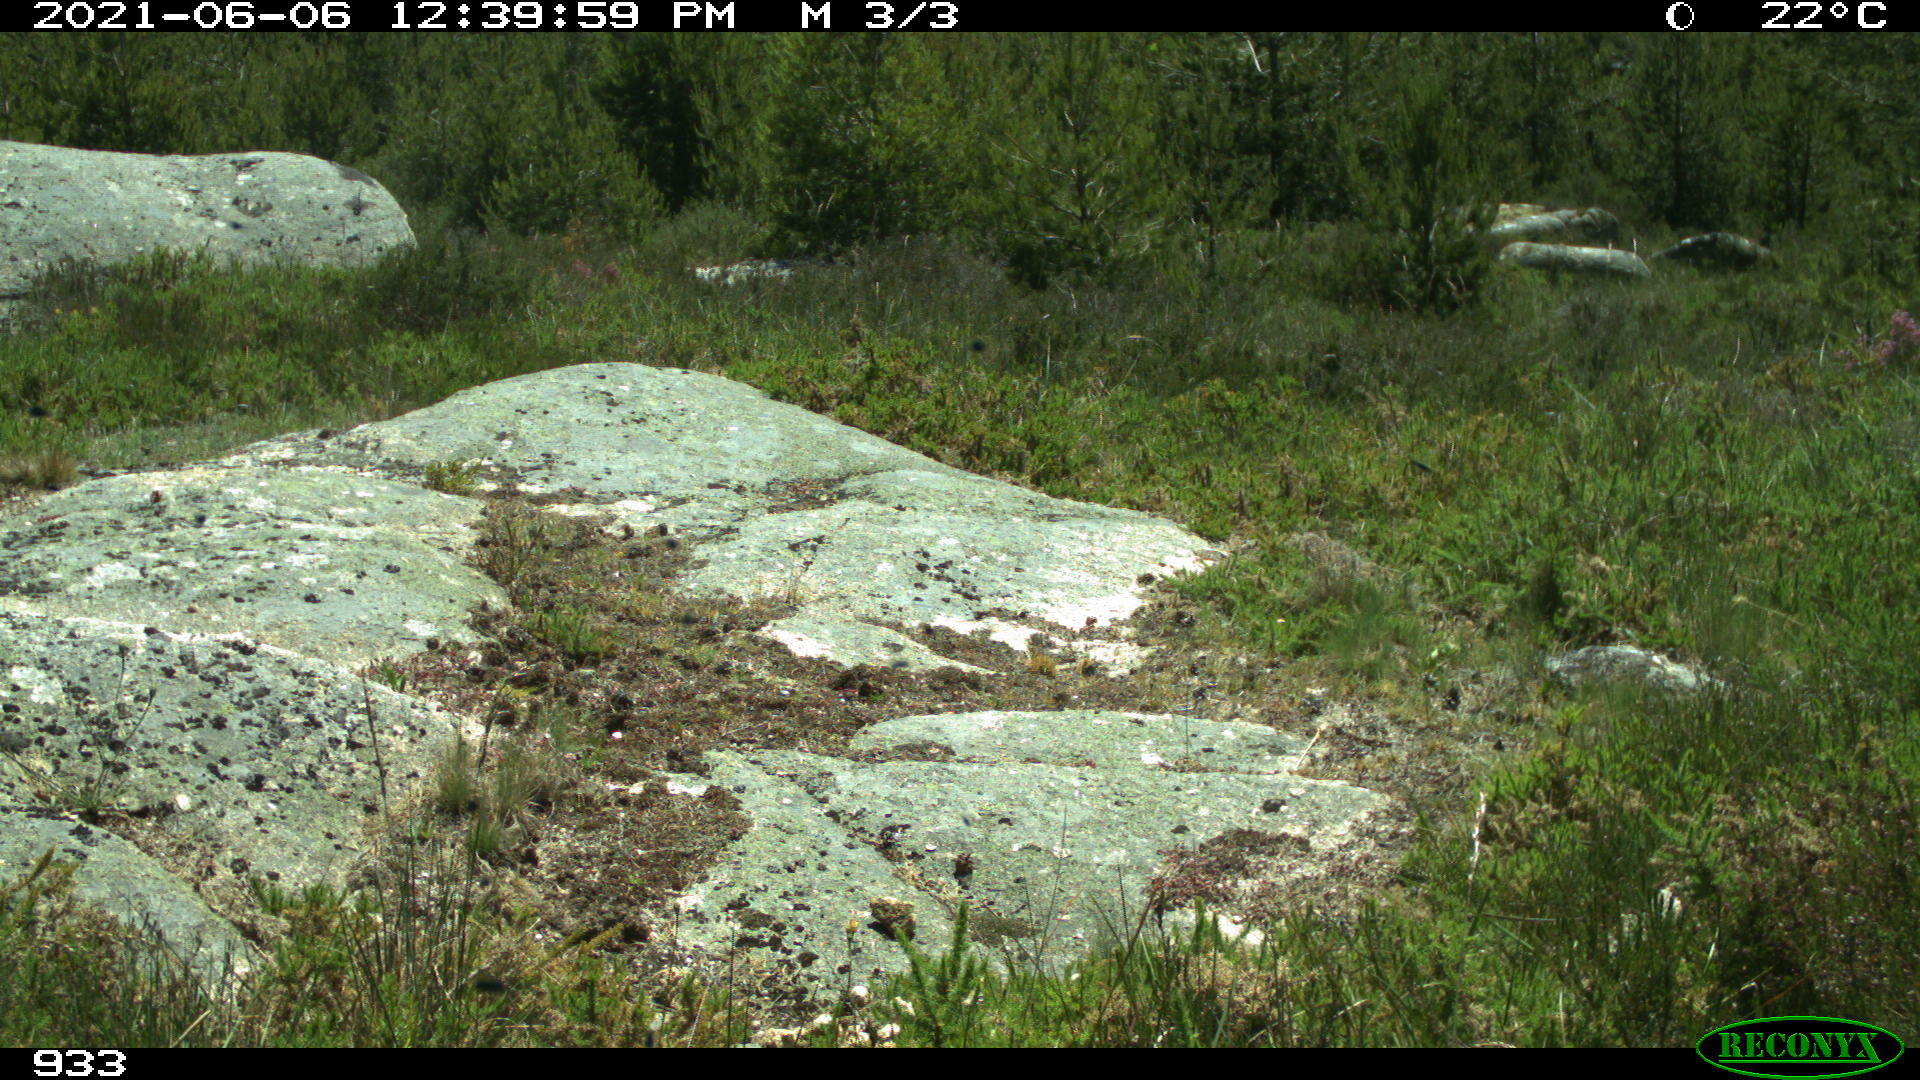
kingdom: Animalia
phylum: Chordata
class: Mammalia
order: Perissodactyla
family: Equidae
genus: Equus
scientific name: Equus caballus
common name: Horse
